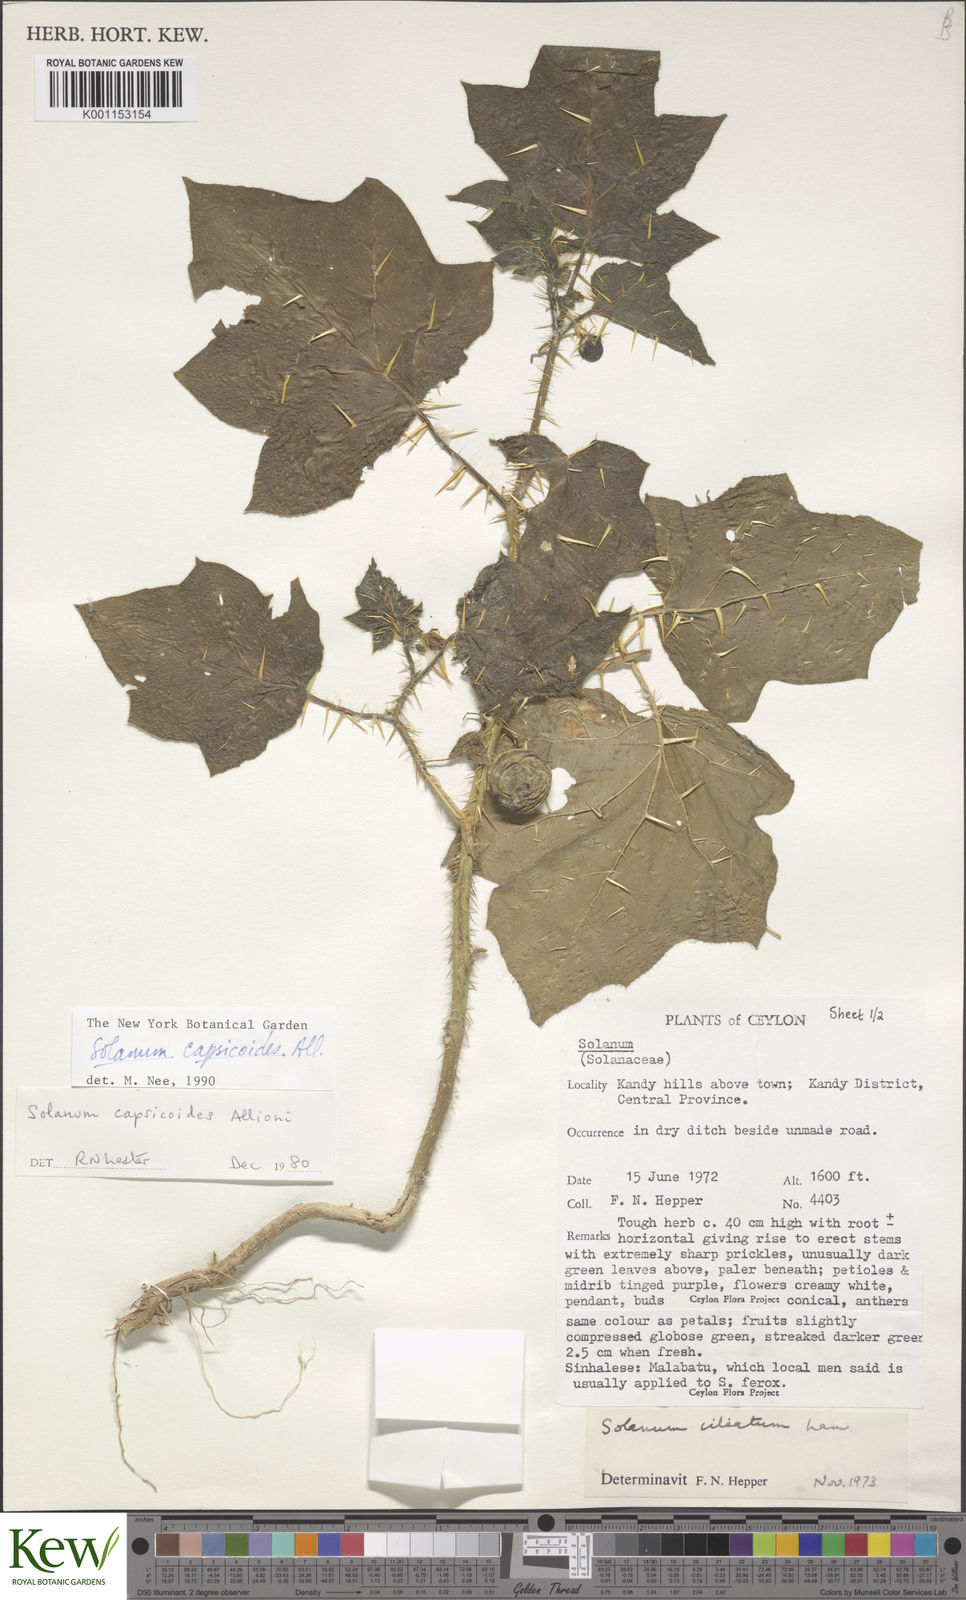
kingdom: Plantae
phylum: Tracheophyta
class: Magnoliopsida
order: Solanales
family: Solanaceae
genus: Solanum
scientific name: Solanum capsicoides
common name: Cockroach berry
